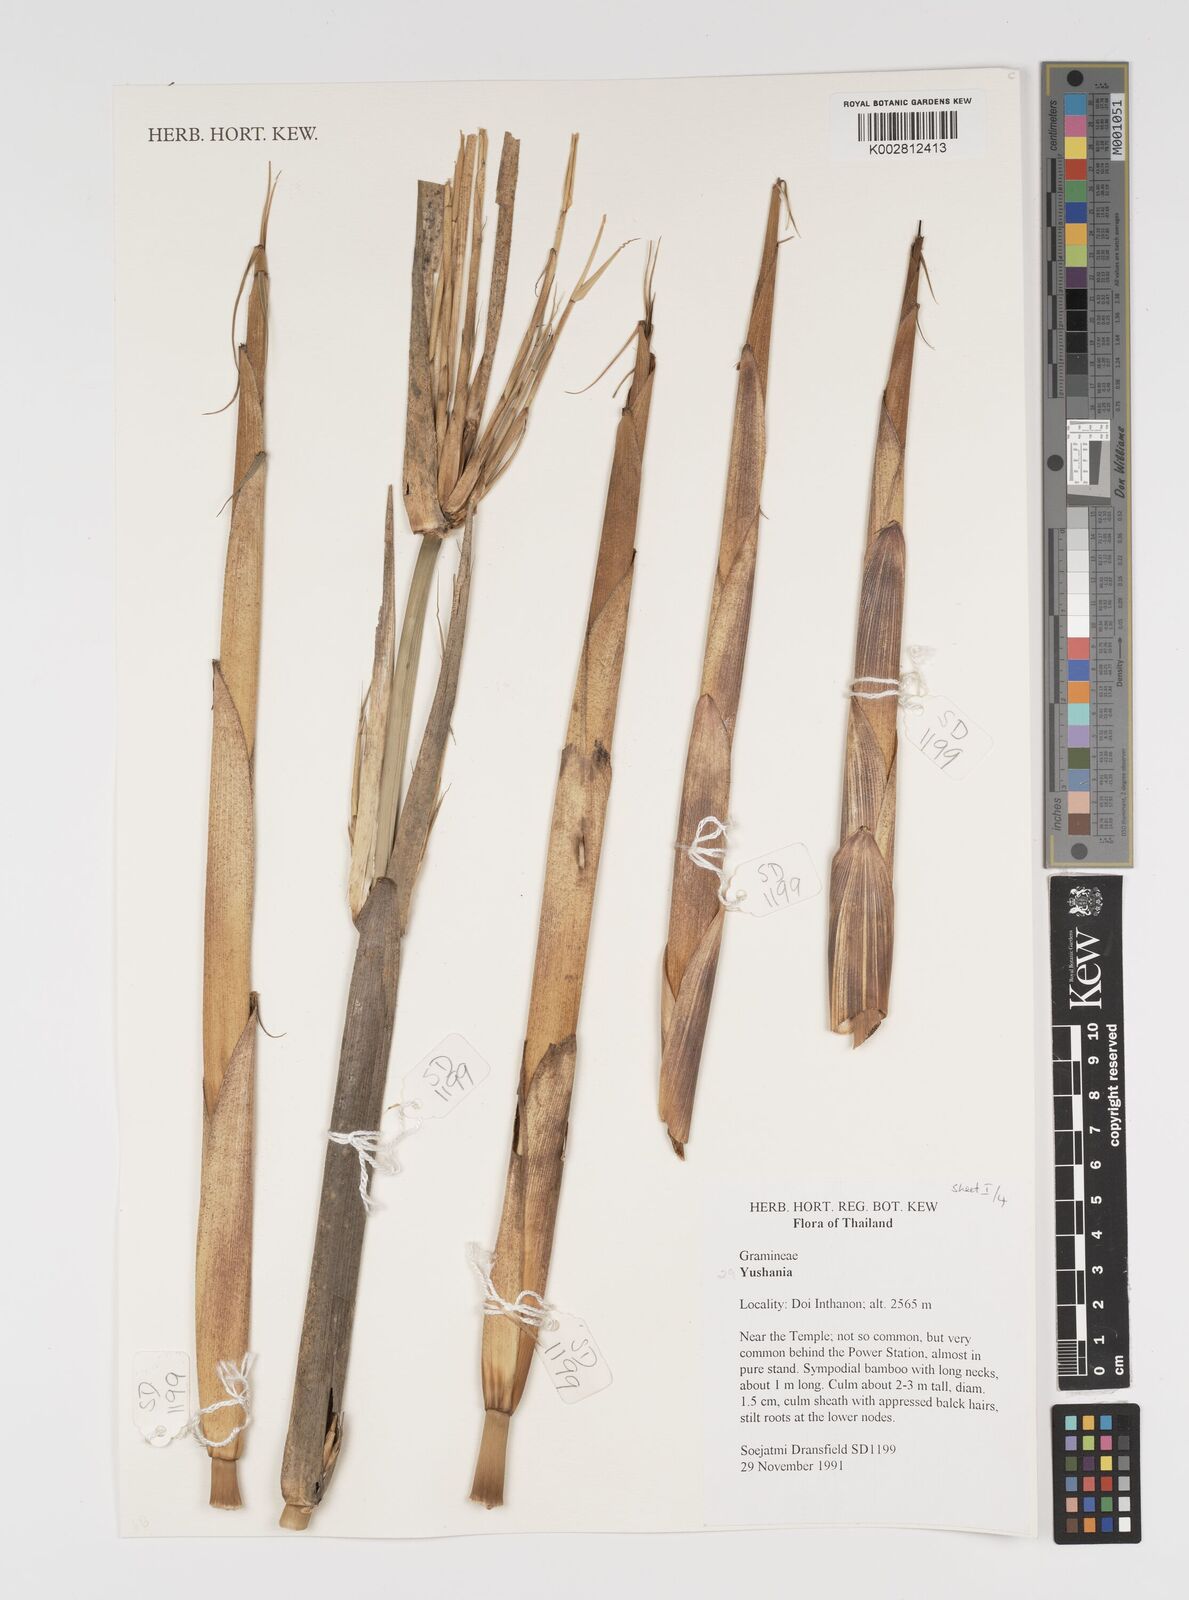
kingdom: Plantae
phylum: Tracheophyta
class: Liliopsida
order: Poales
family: Poaceae
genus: Yushania
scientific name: Yushania
